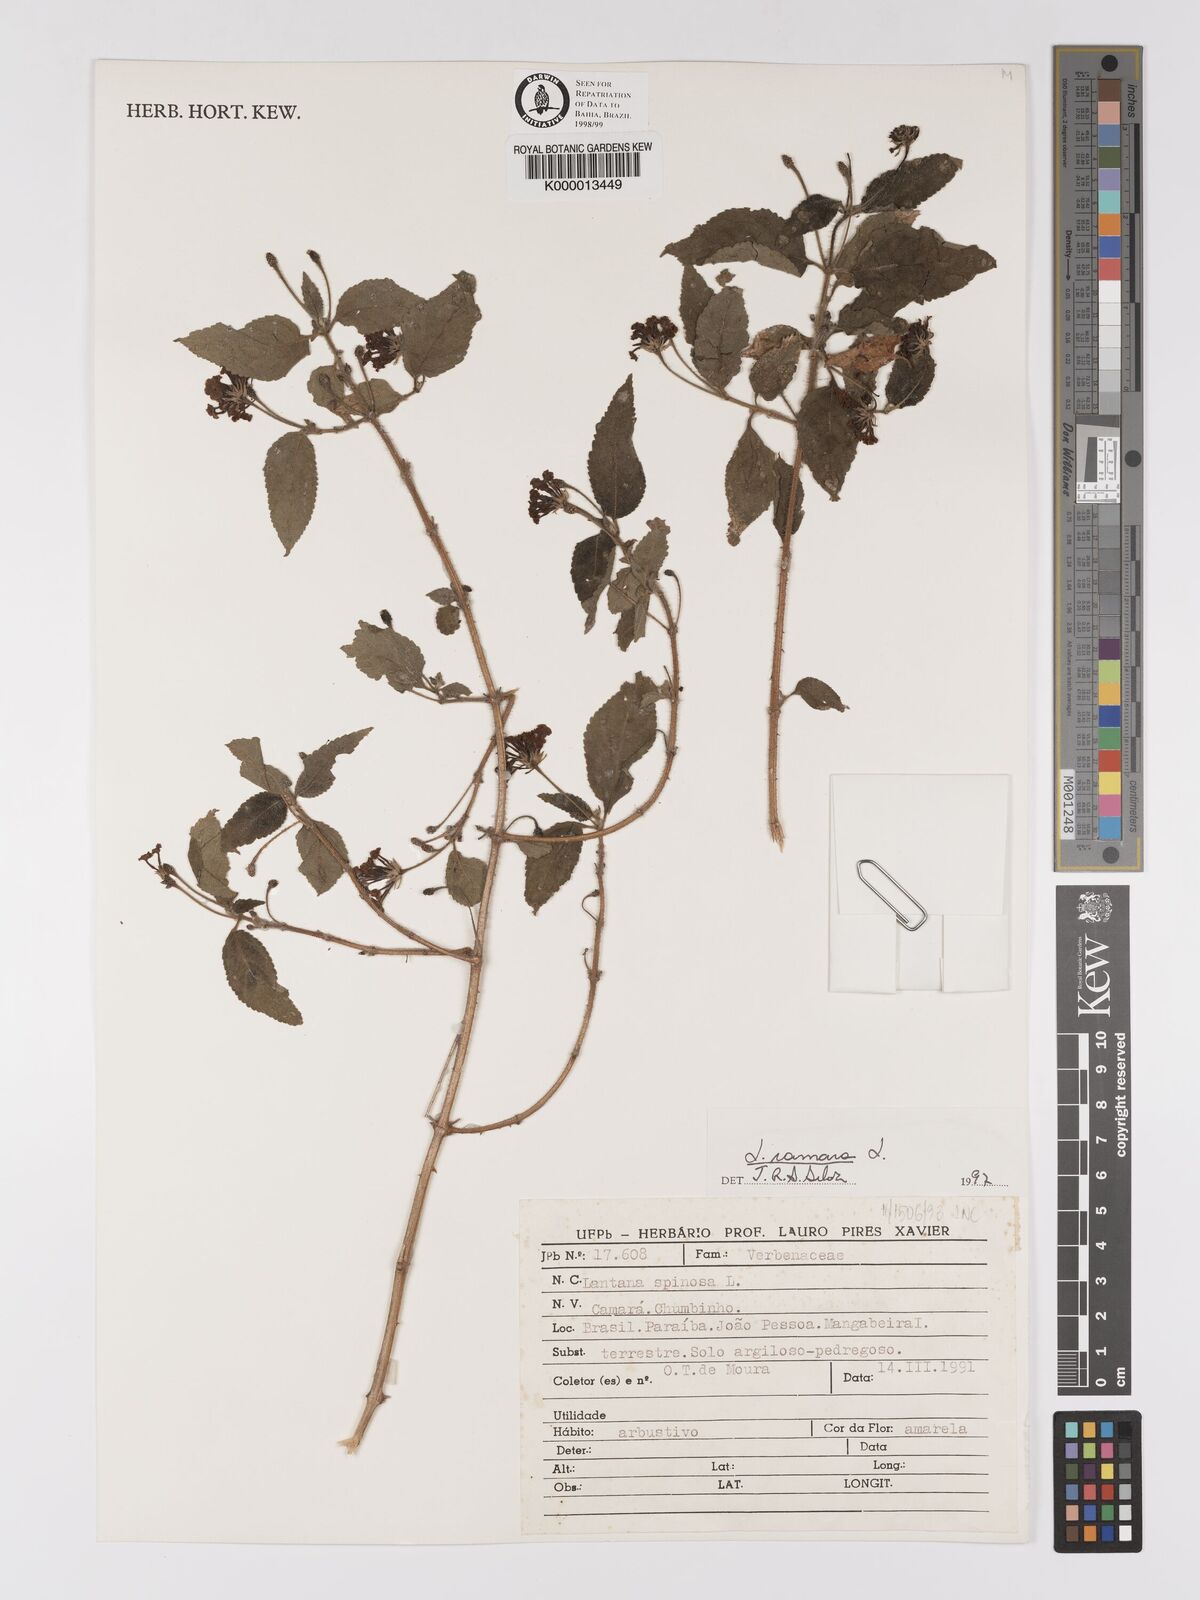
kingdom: Plantae
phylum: Tracheophyta
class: Magnoliopsida
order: Lamiales
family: Verbenaceae
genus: Lantana
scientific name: Lantana camara
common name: Lantana
